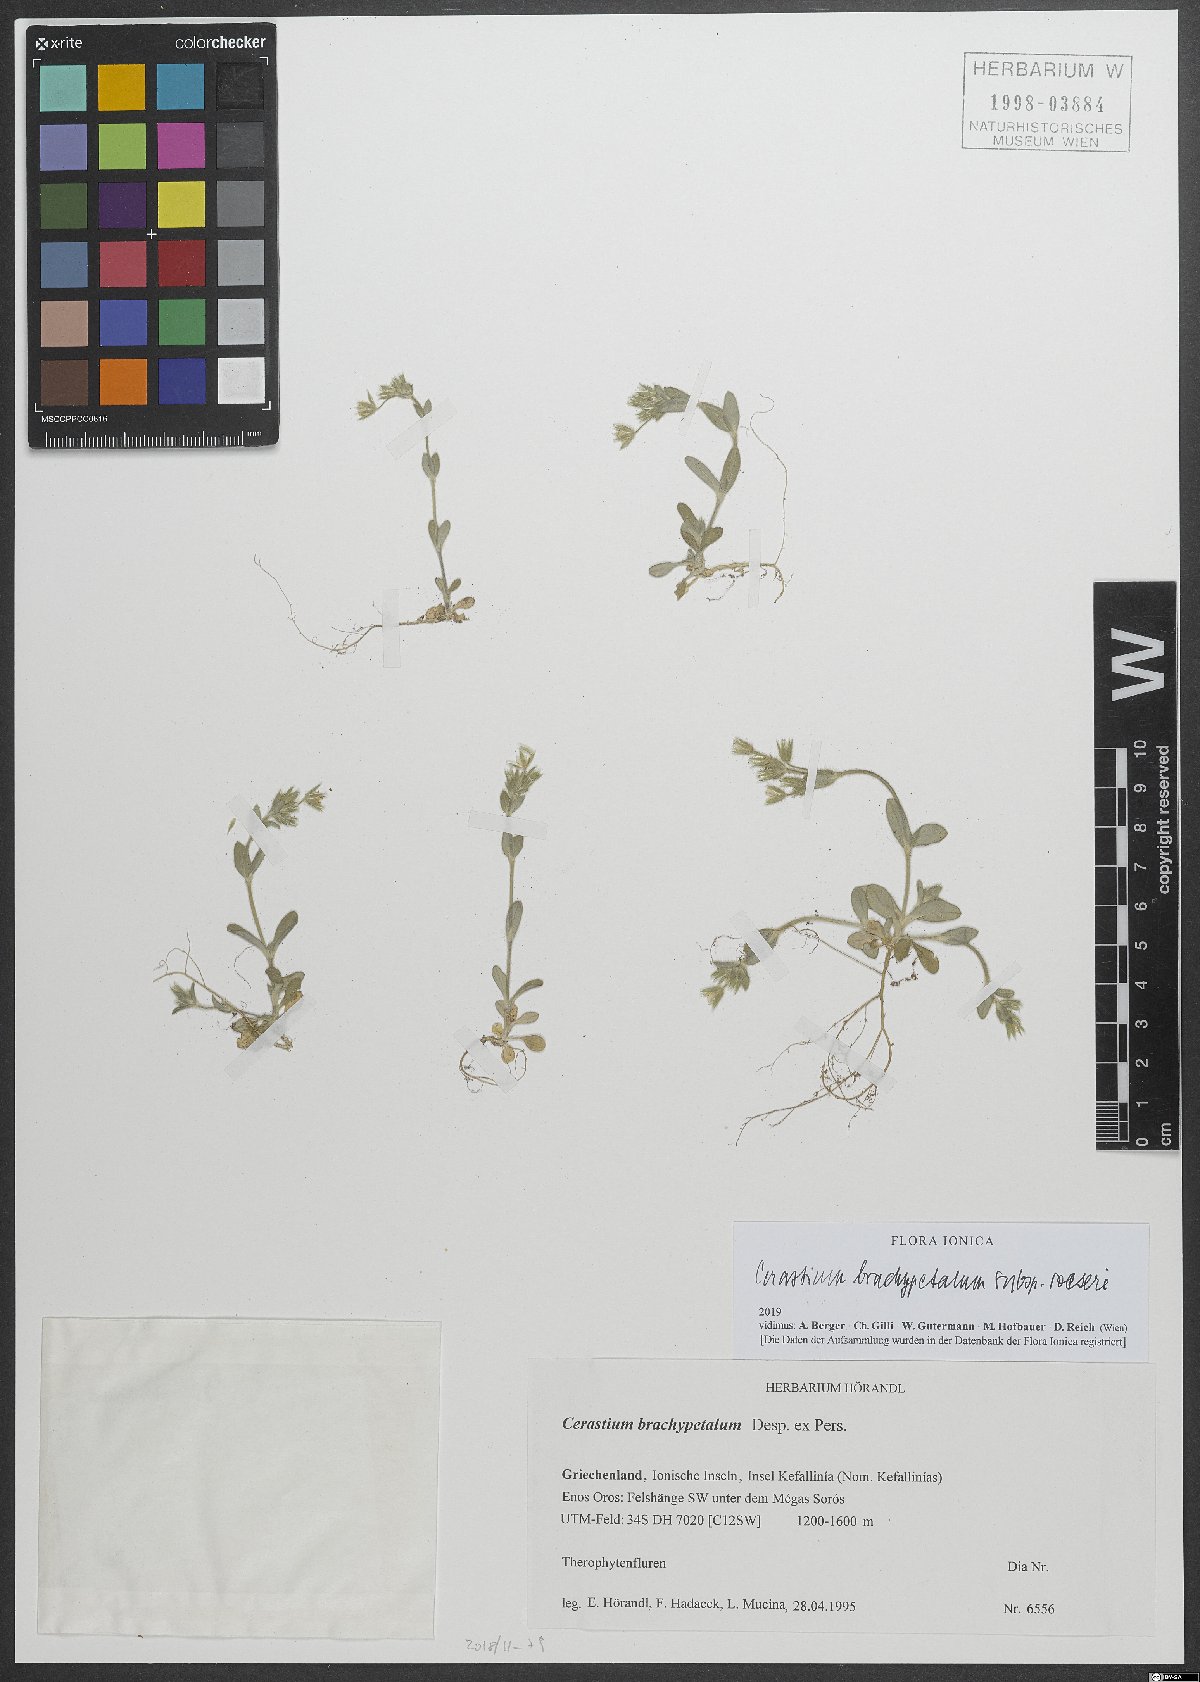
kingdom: Plantae
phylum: Tracheophyta
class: Magnoliopsida
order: Caryophyllales
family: Caryophyllaceae
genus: Cerastium
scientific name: Cerastium brachypetalum
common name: Grey mouse-ear
